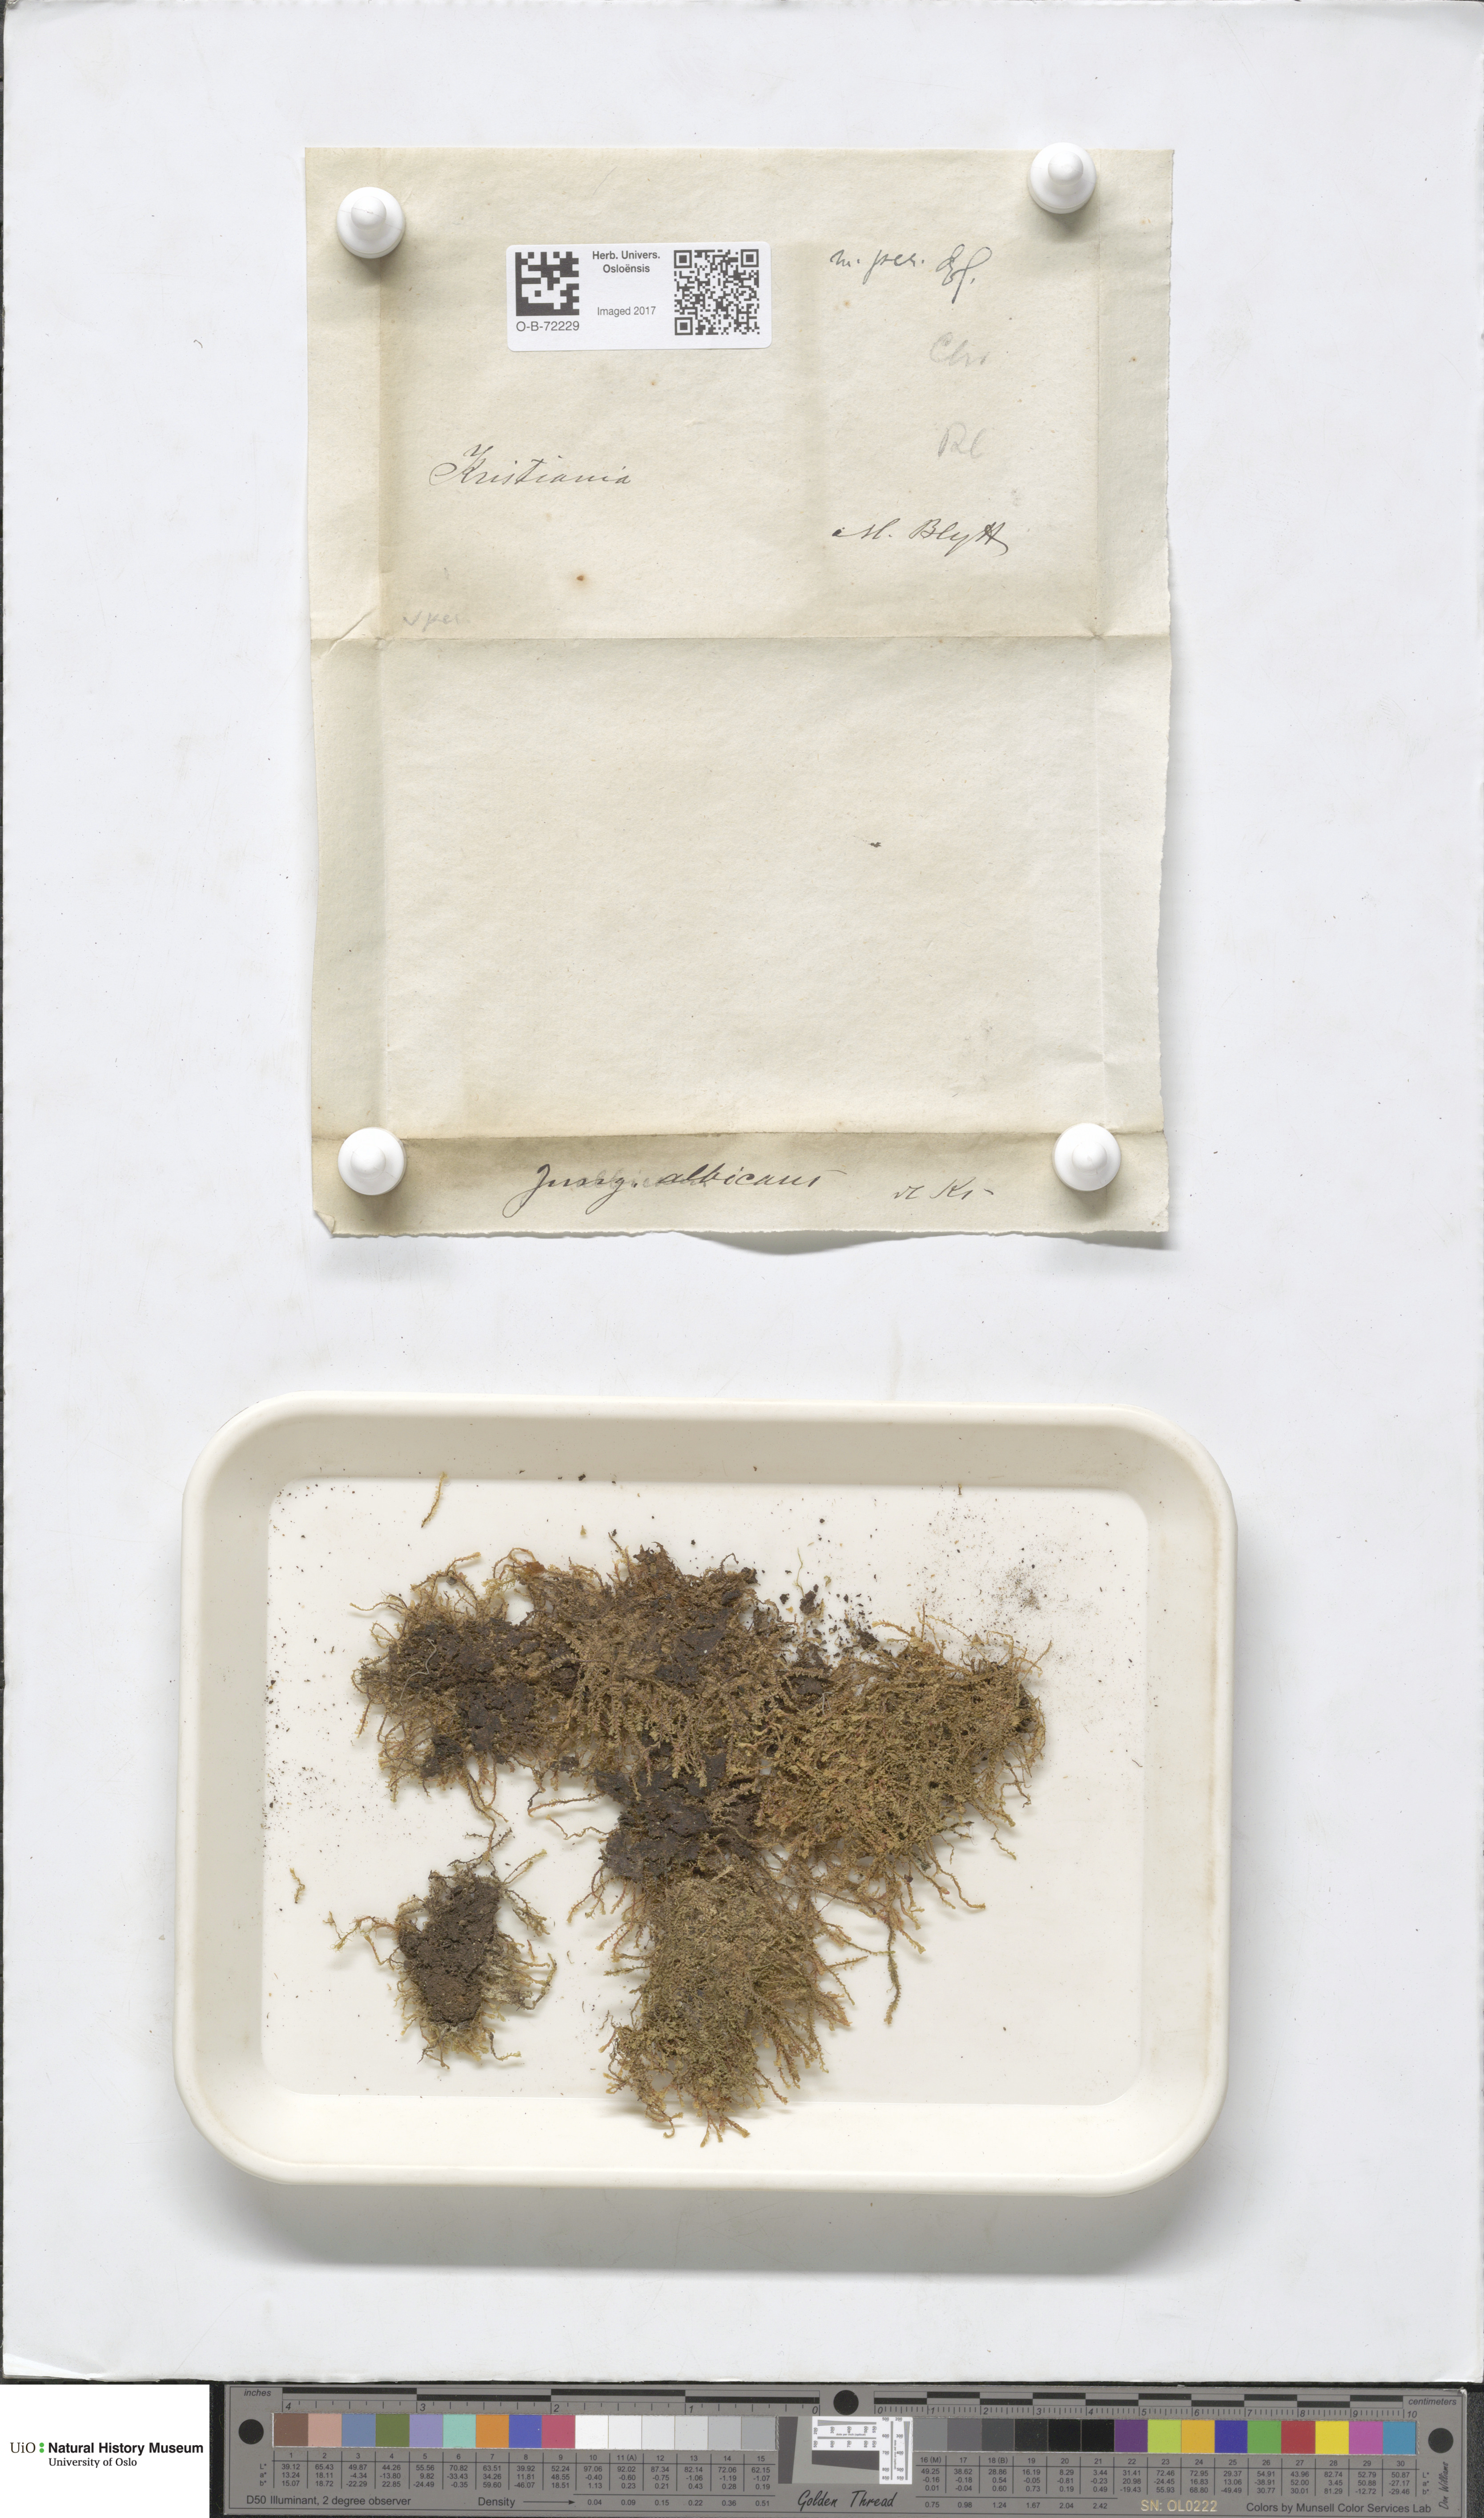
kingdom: Plantae
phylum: Marchantiophyta
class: Jungermanniopsida
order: Jungermanniales
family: Scapaniaceae
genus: Diplophyllum
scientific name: Diplophyllum albicans
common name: White earwort
